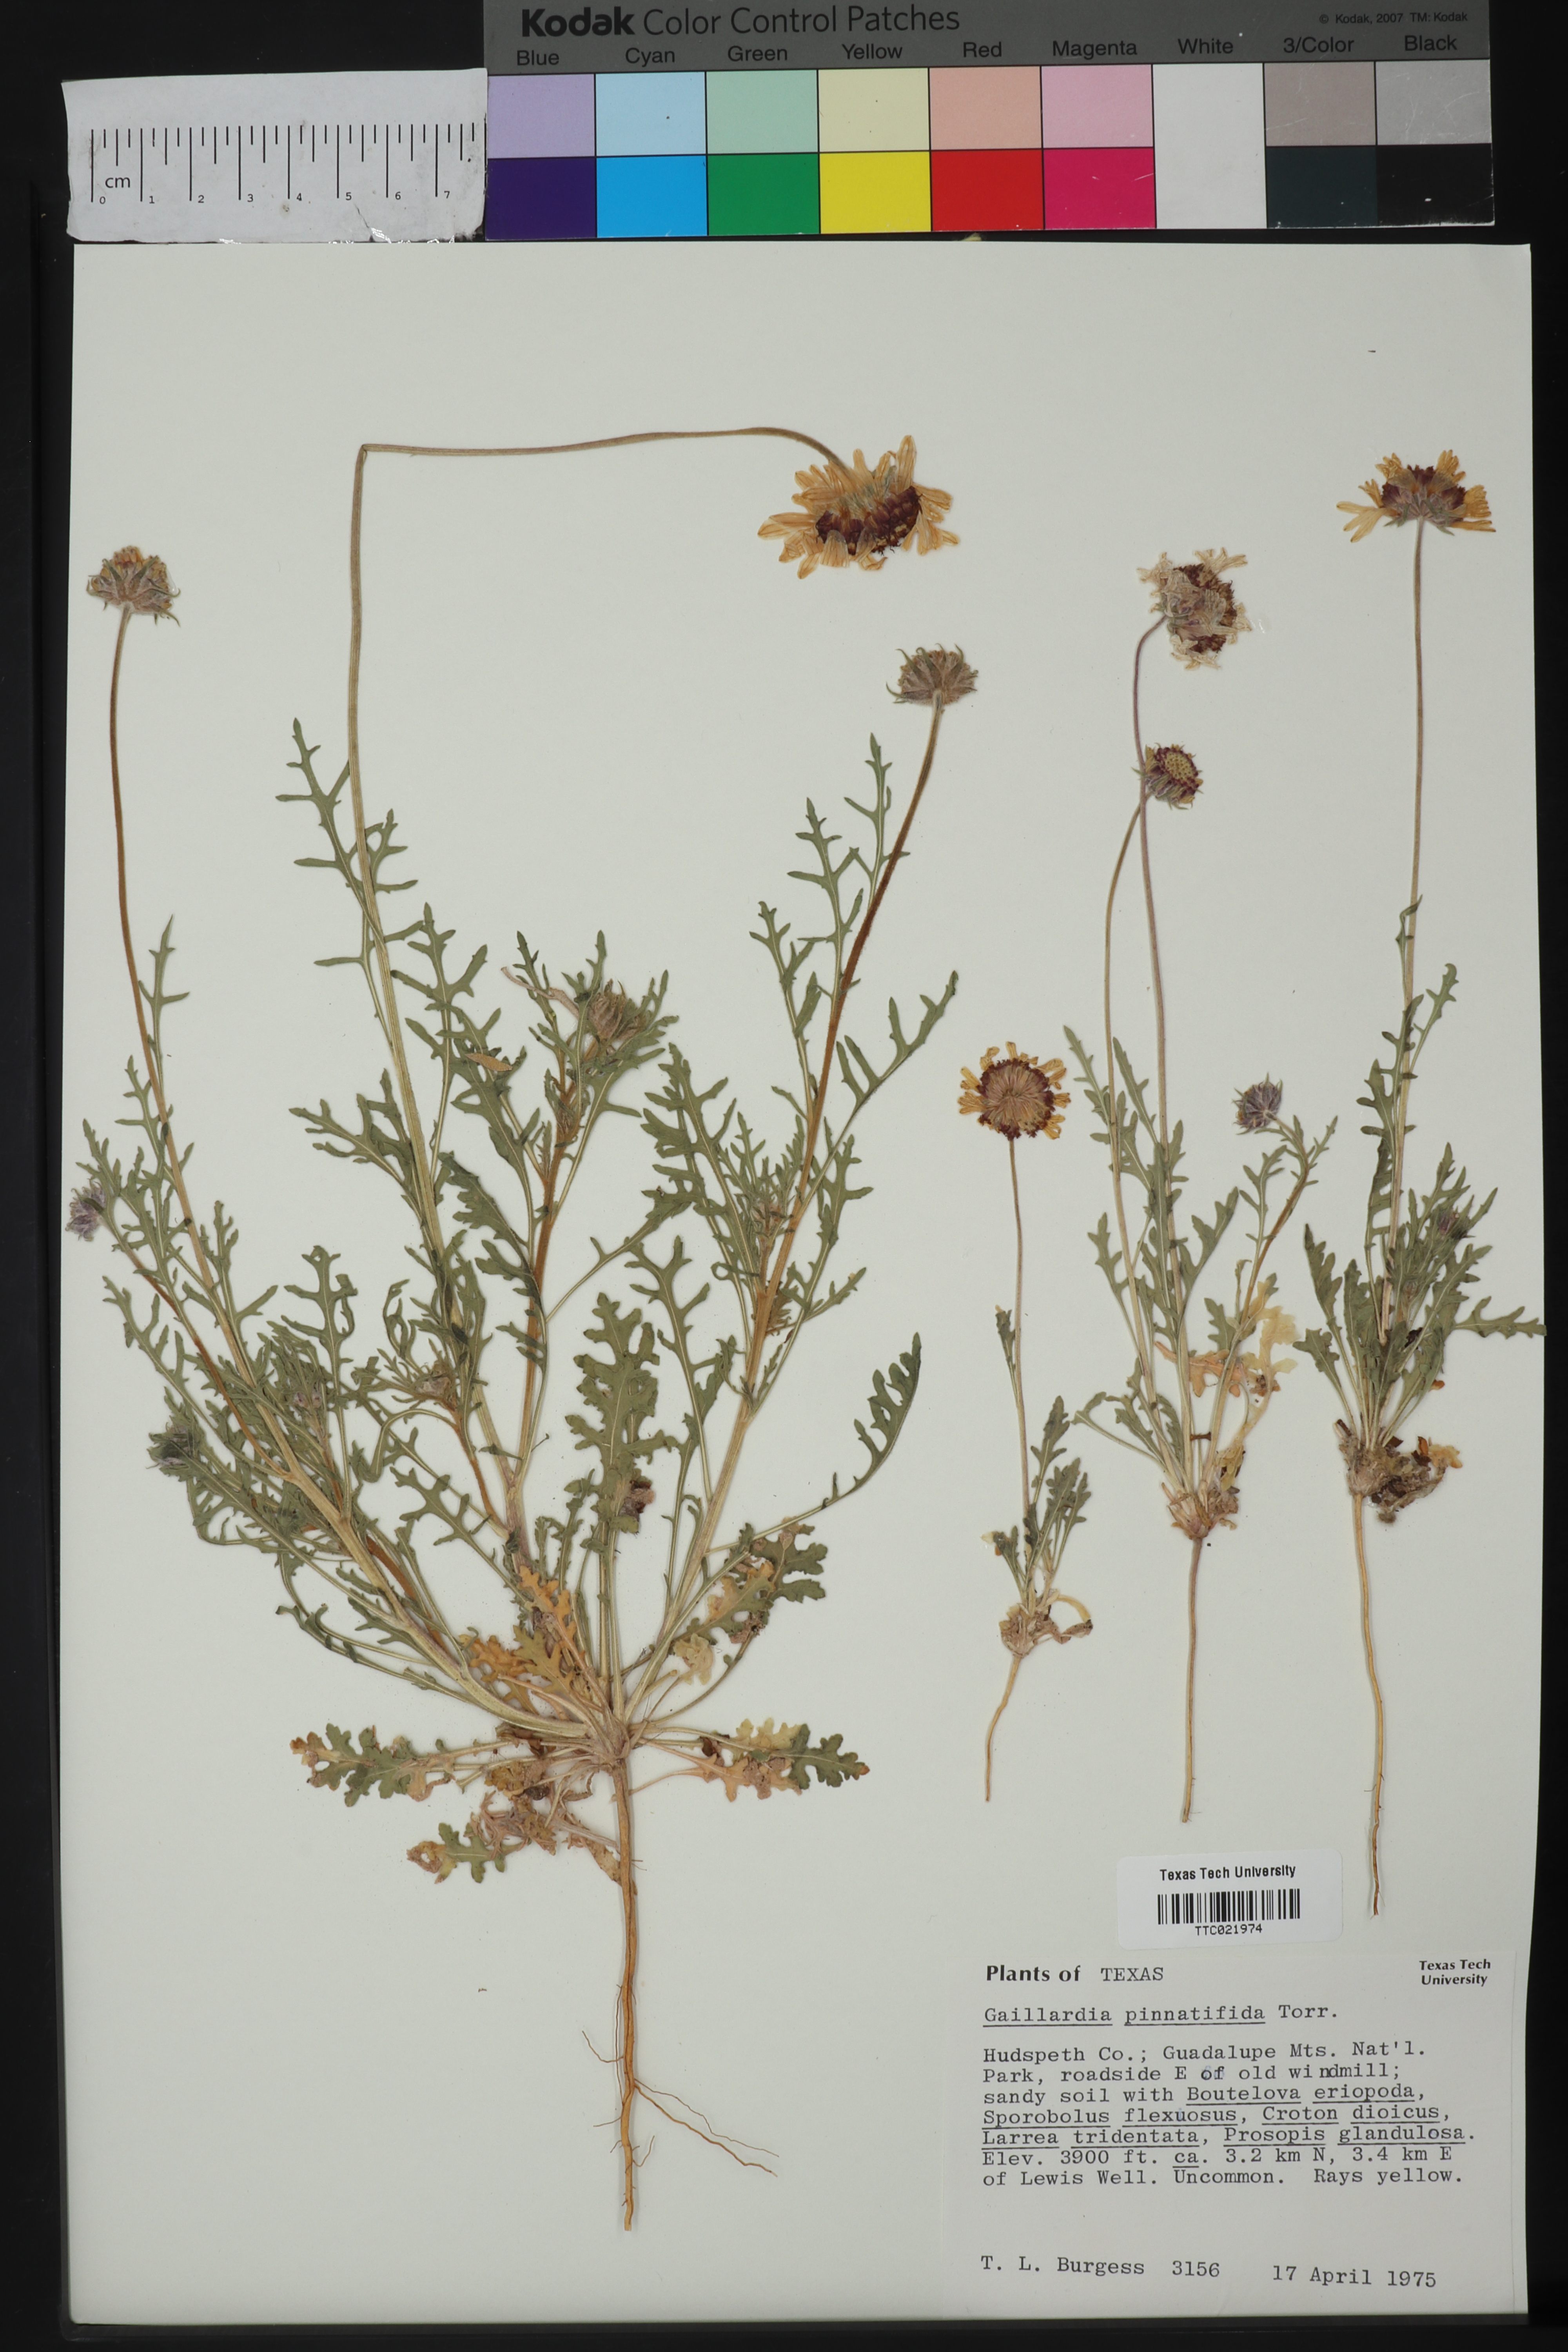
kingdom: Plantae
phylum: Tracheophyta
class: Magnoliopsida
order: Asterales
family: Asteraceae
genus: Gaillardia
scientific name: Gaillardia pinnatifida
